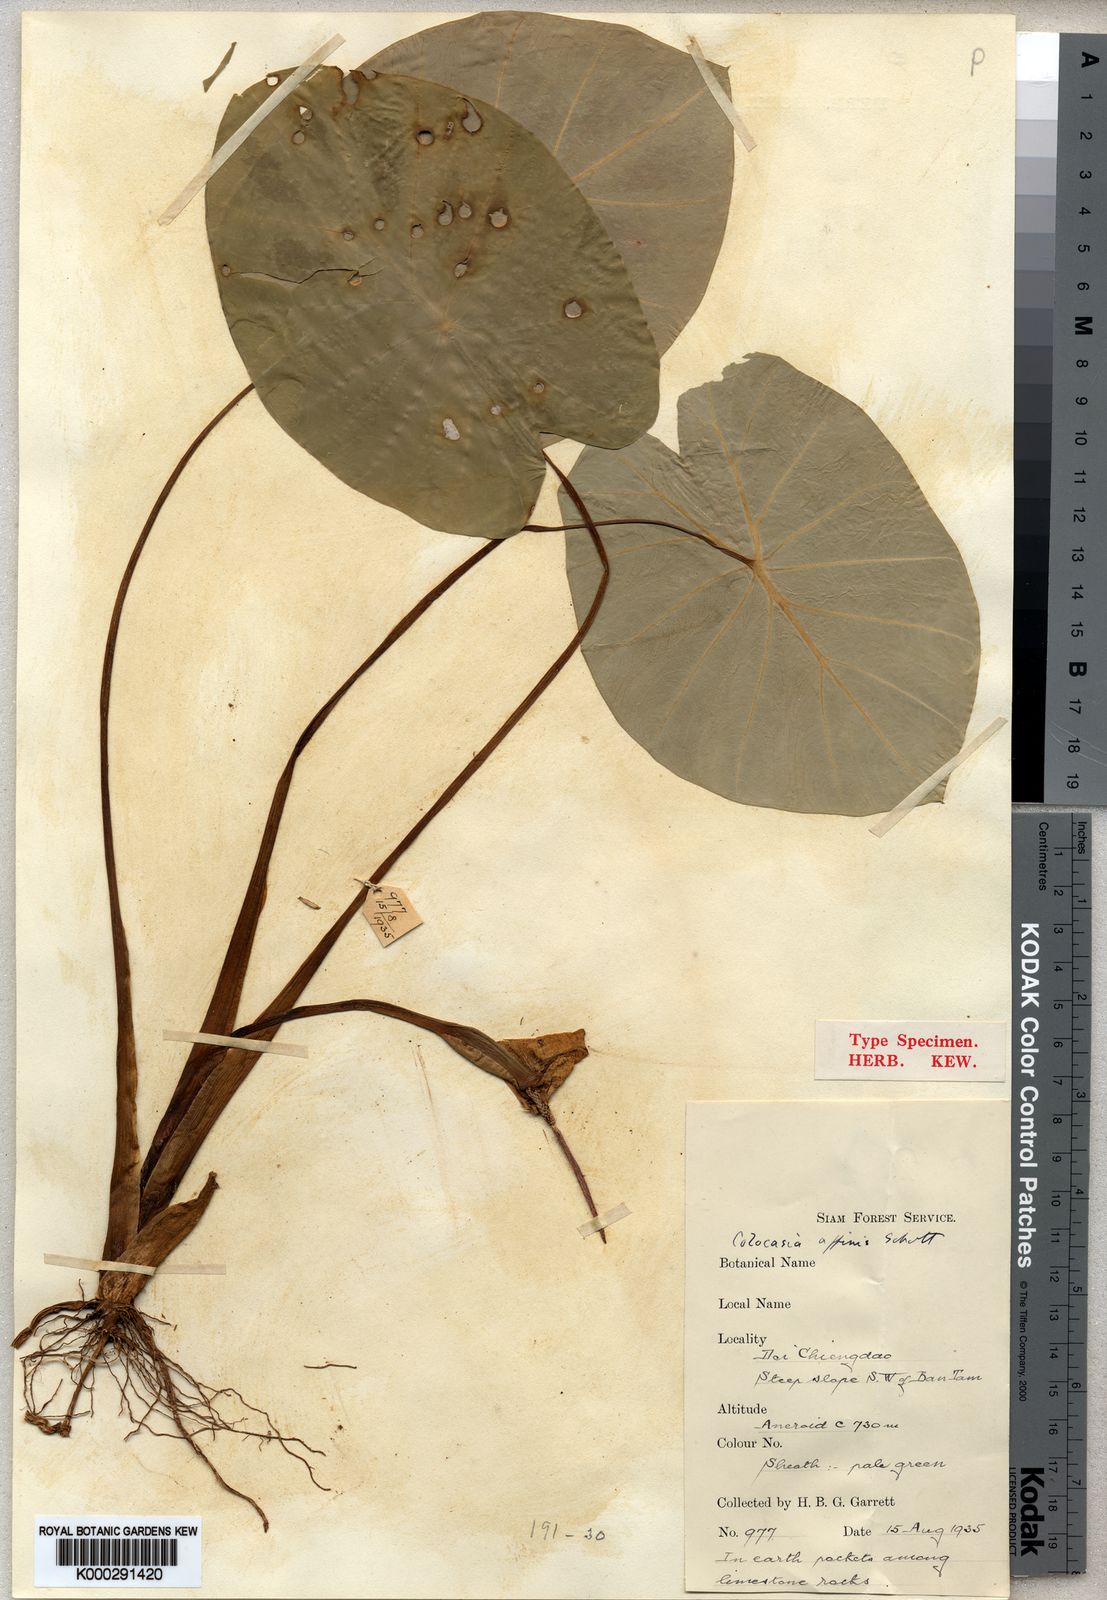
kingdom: Plantae
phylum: Tracheophyta
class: Liliopsida
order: Alismatales
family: Araceae
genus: Colocasia
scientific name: Colocasia fallax
